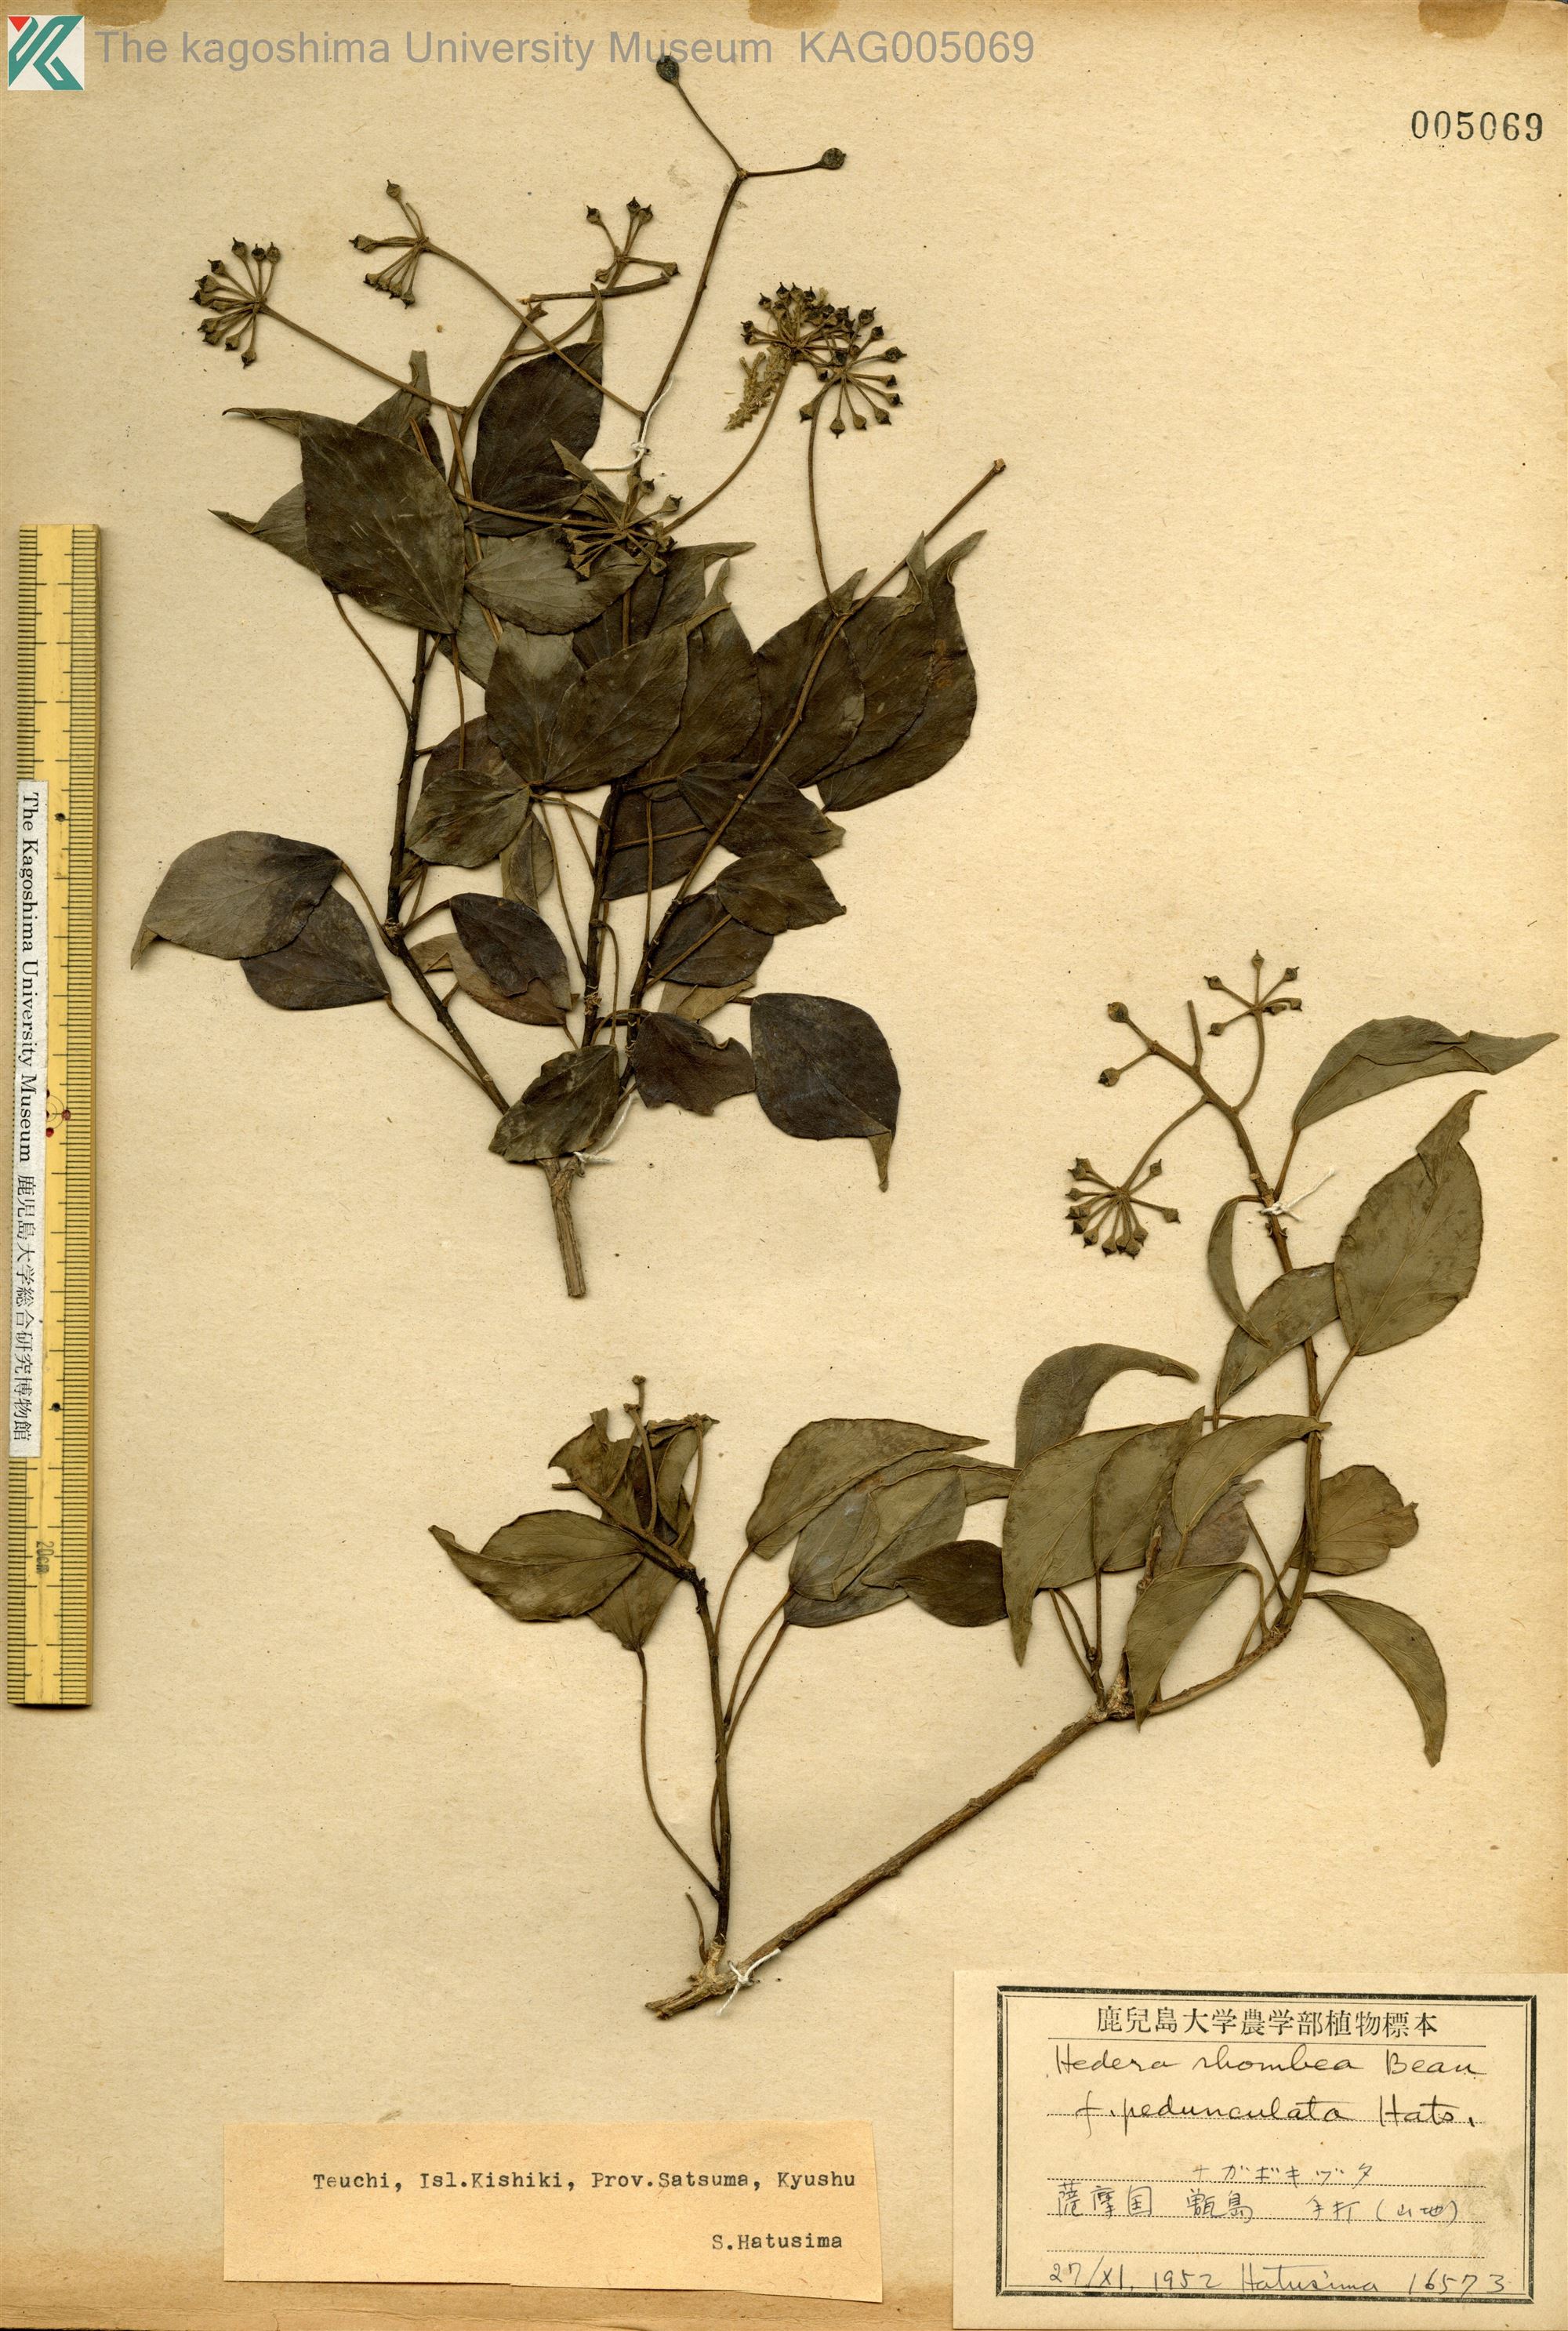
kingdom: Plantae
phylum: Tracheophyta
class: Magnoliopsida
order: Apiales
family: Araliaceae
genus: Hedera
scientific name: Hedera rhombea
